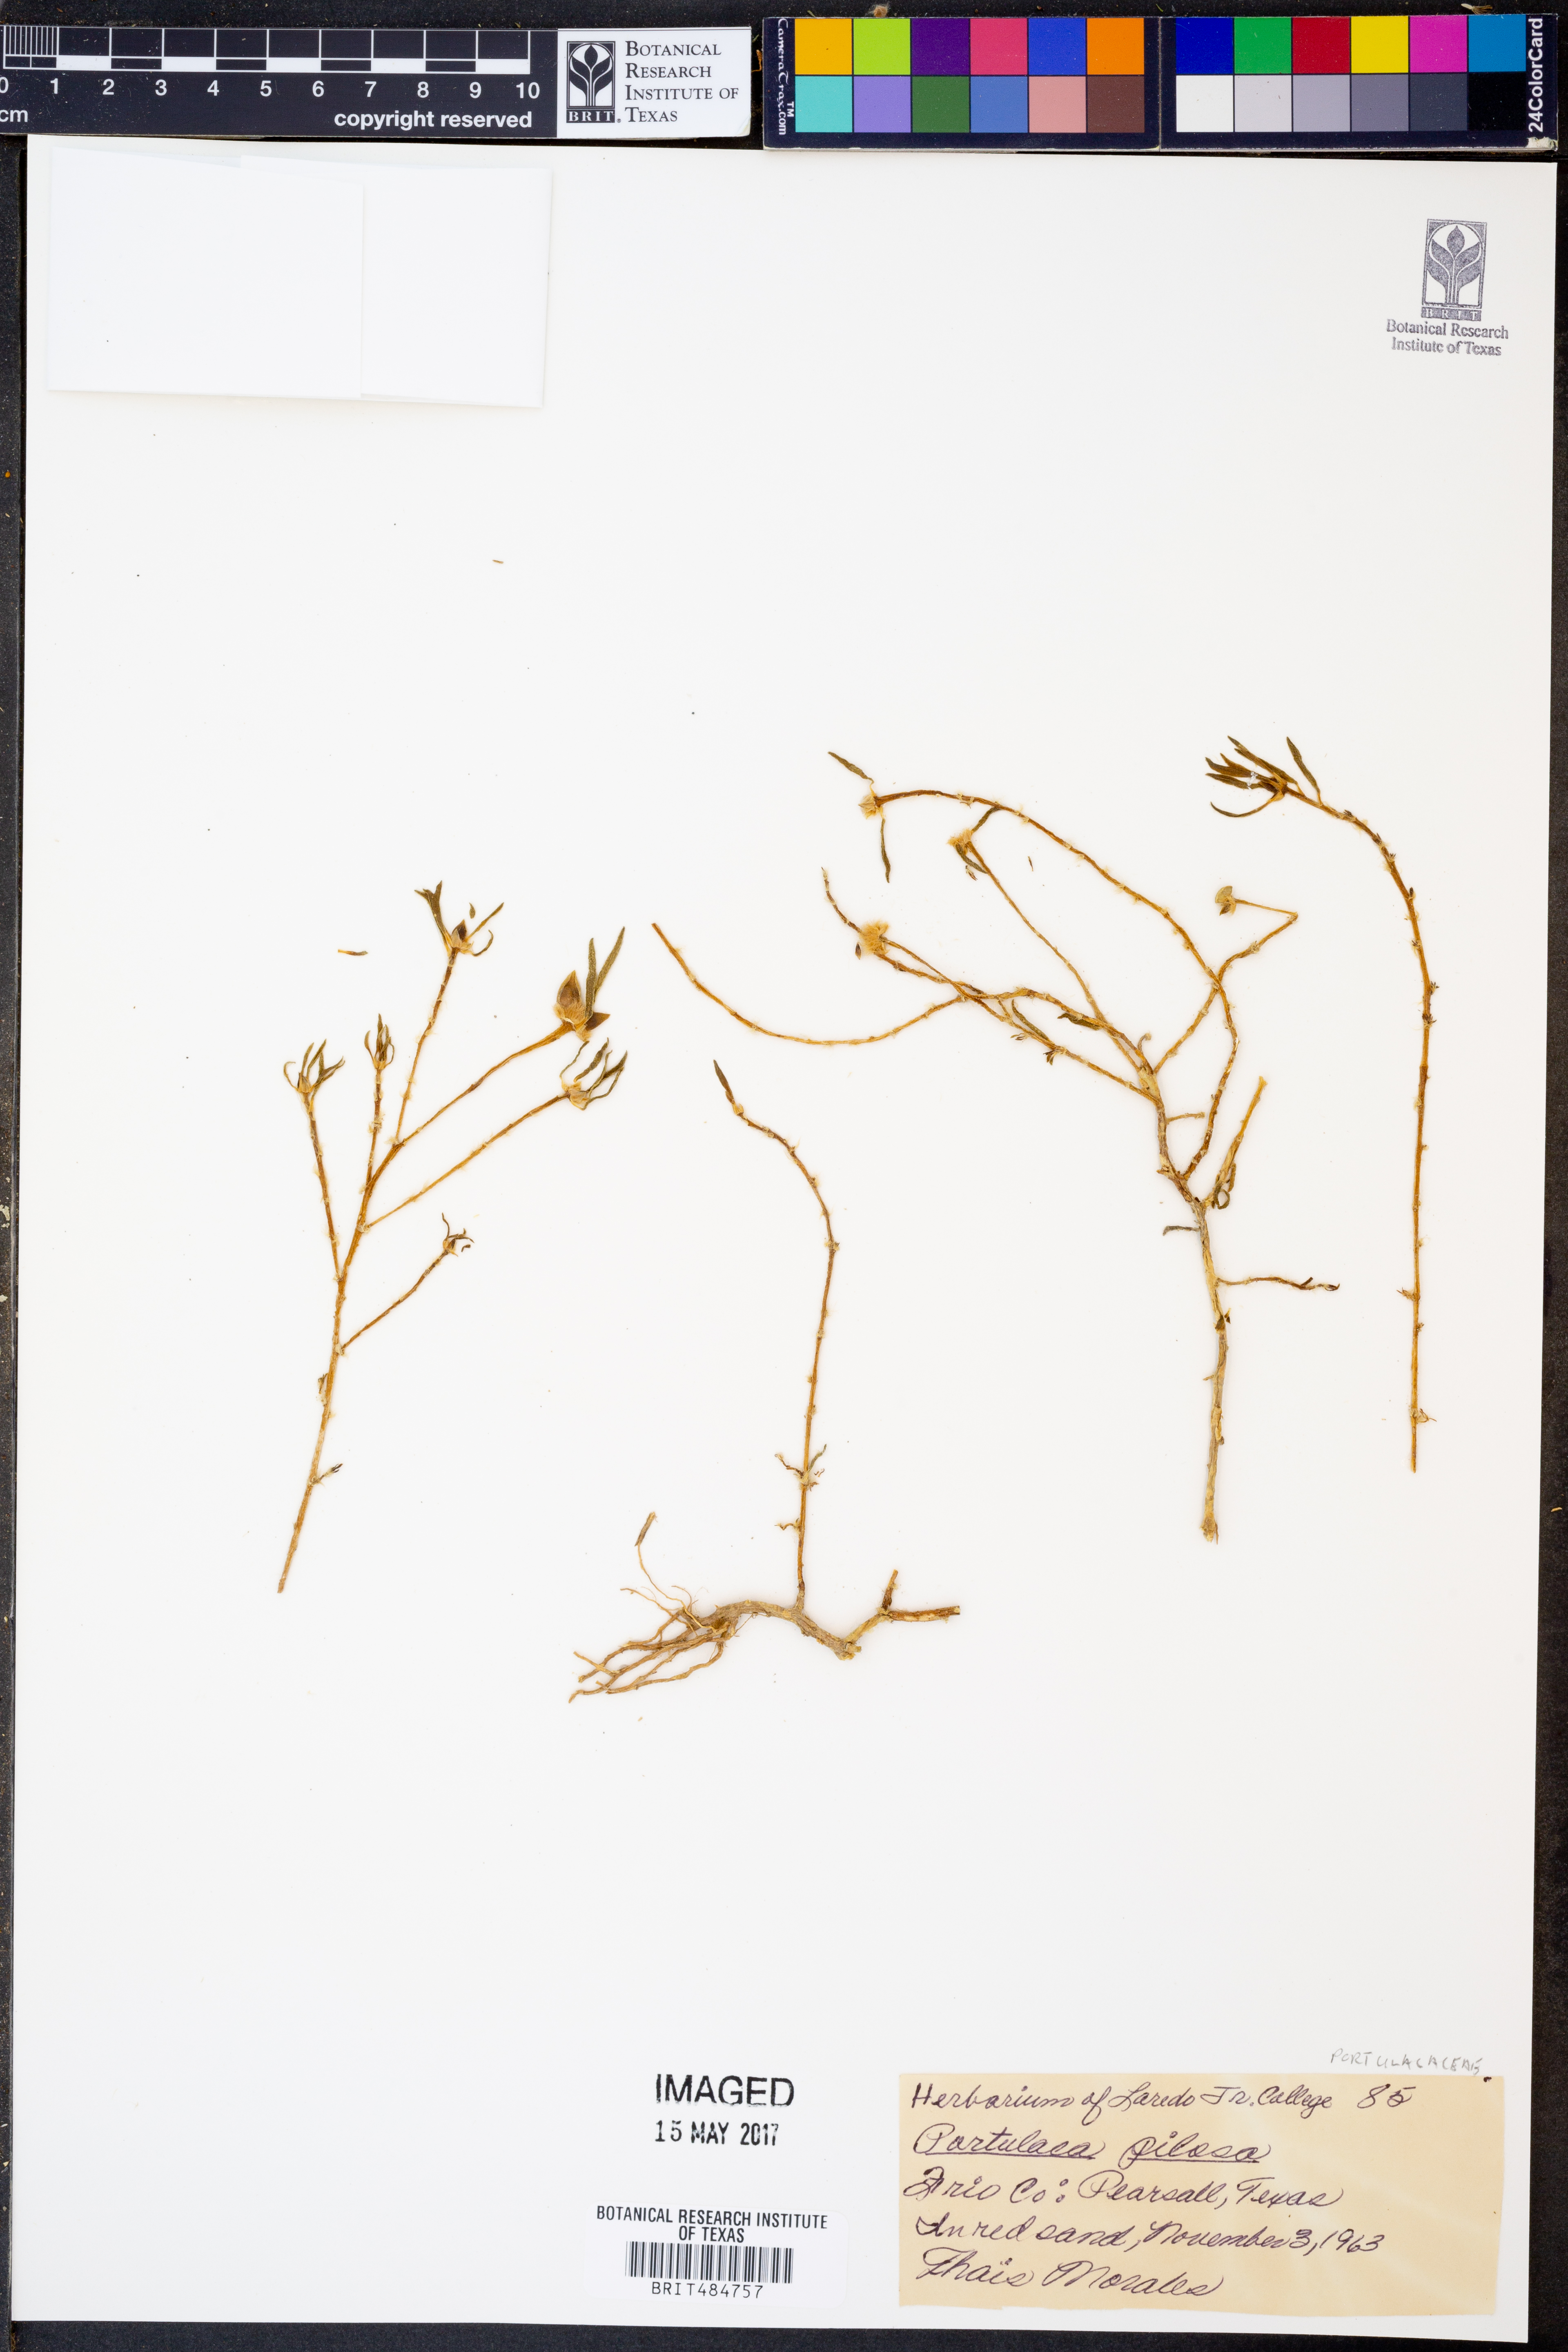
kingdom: Plantae
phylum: Tracheophyta
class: Magnoliopsida
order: Caryophyllales
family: Portulacaceae
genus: Portulaca
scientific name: Portulaca pilosa
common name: Kiss me quick
